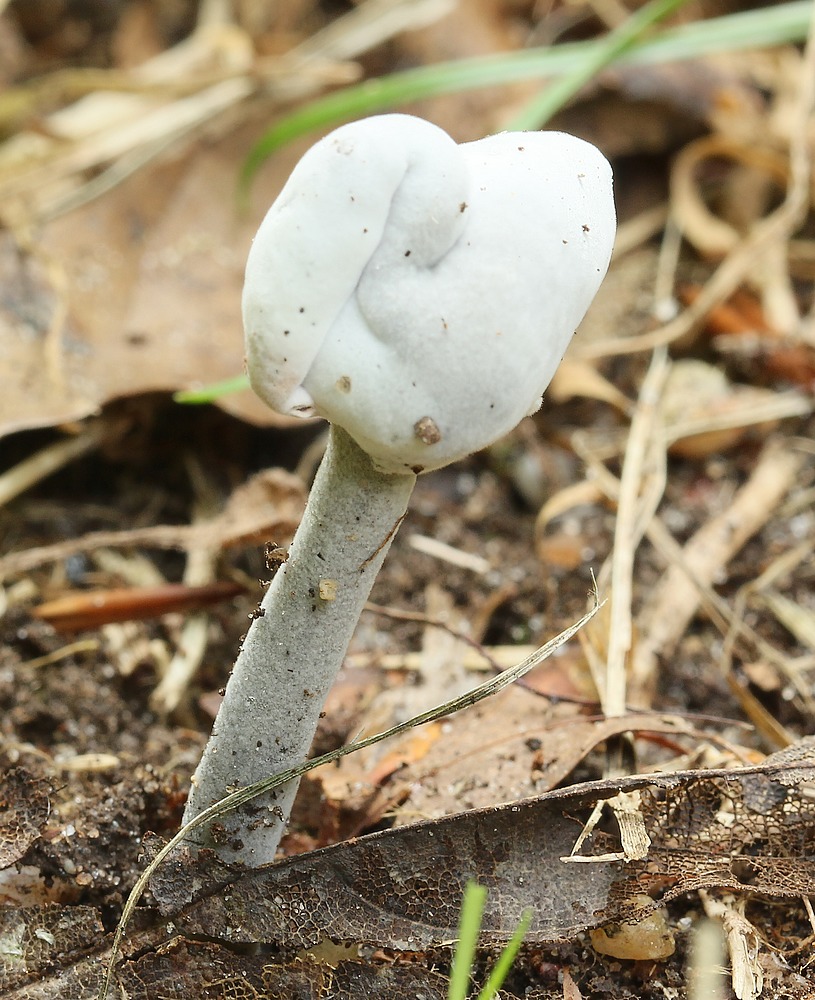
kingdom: Fungi
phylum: Ascomycota
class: Sordariomycetes
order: Hypocreales
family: Hypocreaceae
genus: Hypomyces
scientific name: Hypomyces cervinus
